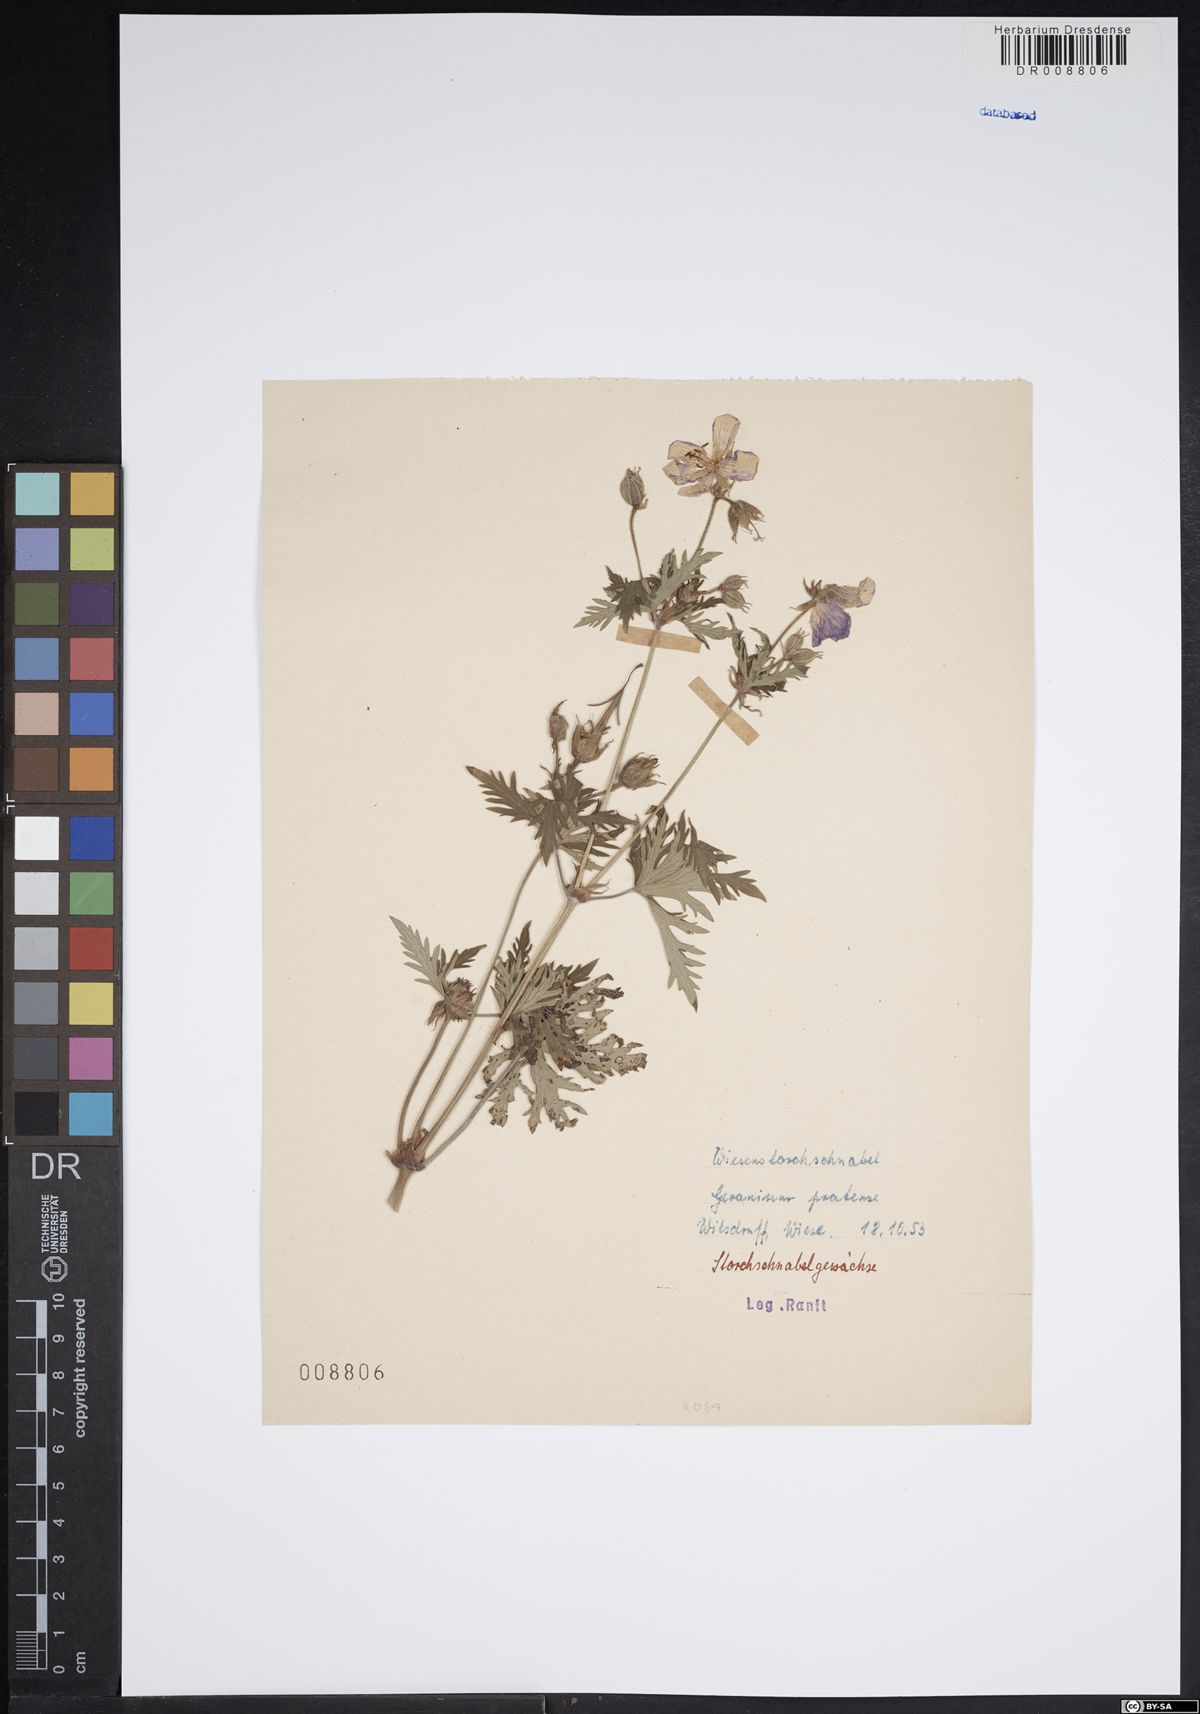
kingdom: Plantae
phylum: Tracheophyta
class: Magnoliopsida
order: Geraniales
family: Geraniaceae
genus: Geranium
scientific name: Geranium pratense
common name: Meadow crane's-bill
